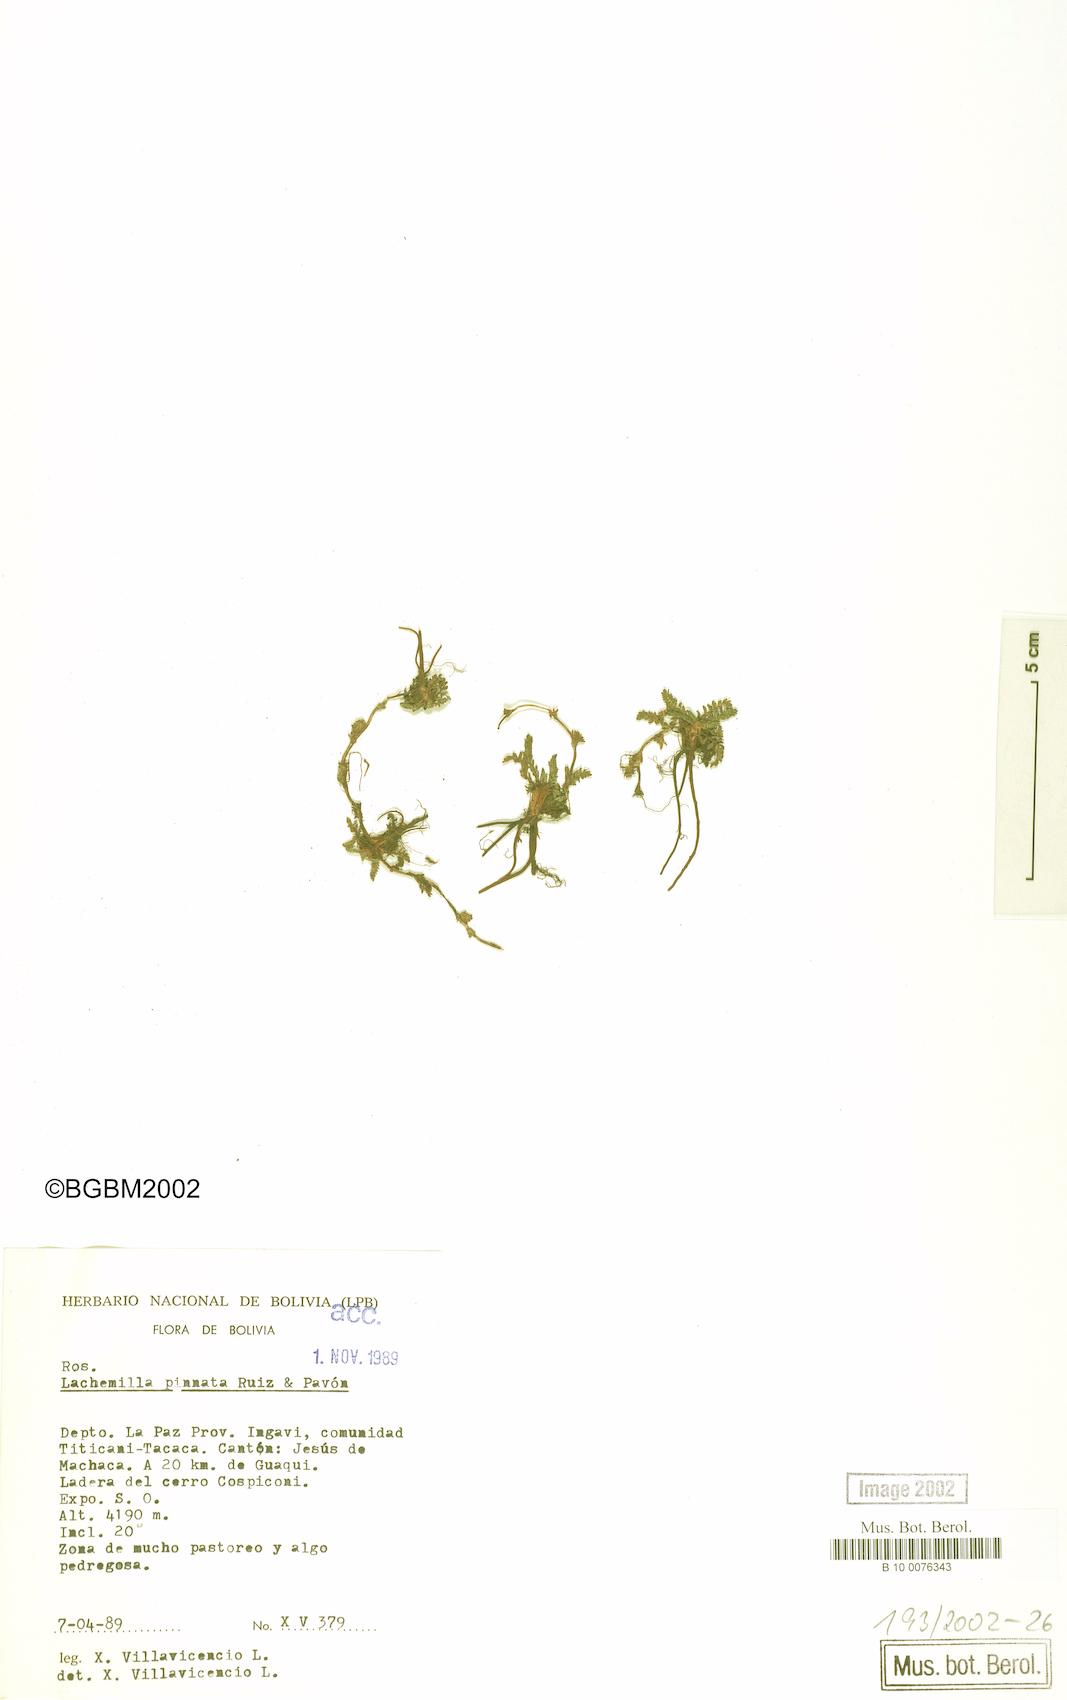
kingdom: Plantae
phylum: Tracheophyta
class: Magnoliopsida
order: Rosales
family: Rosaceae
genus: Lachemilla
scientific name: Lachemilla pinnata
